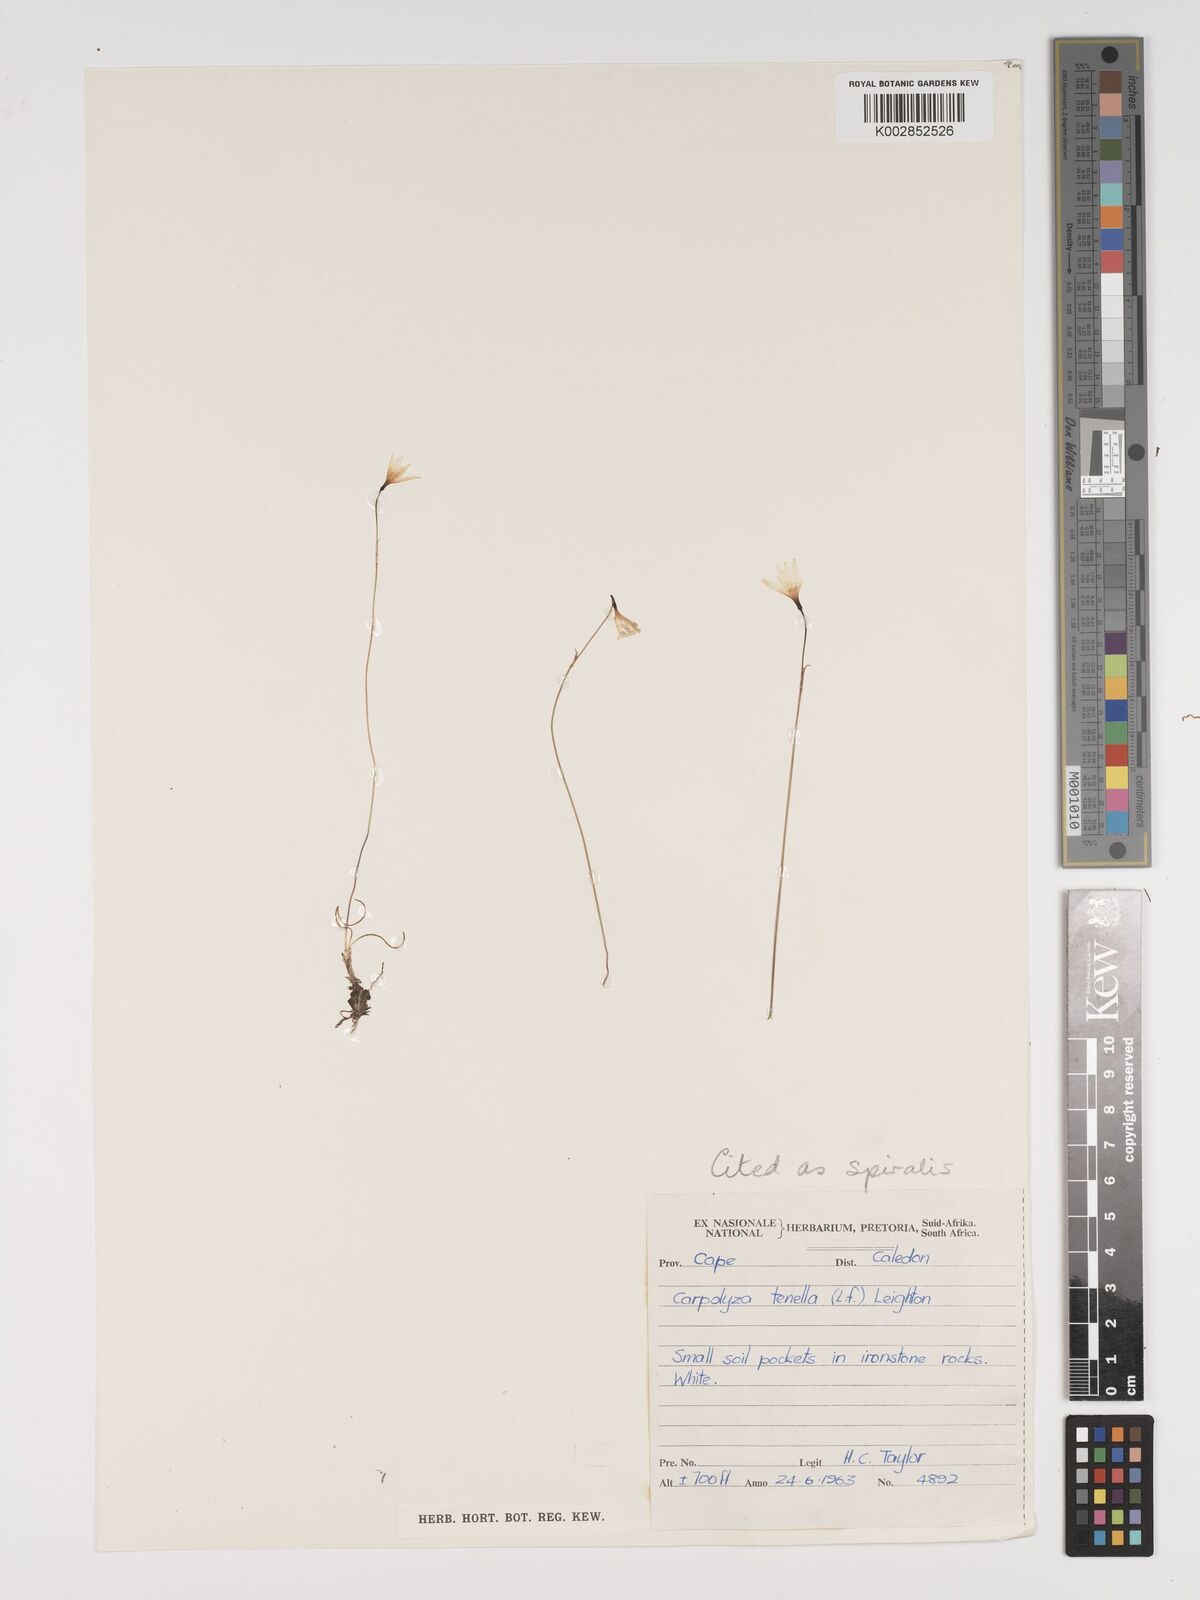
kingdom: Plantae
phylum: Tracheophyta
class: Liliopsida
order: Asparagales
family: Amaryllidaceae
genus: Strumaria
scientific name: Strumaria spiralis
